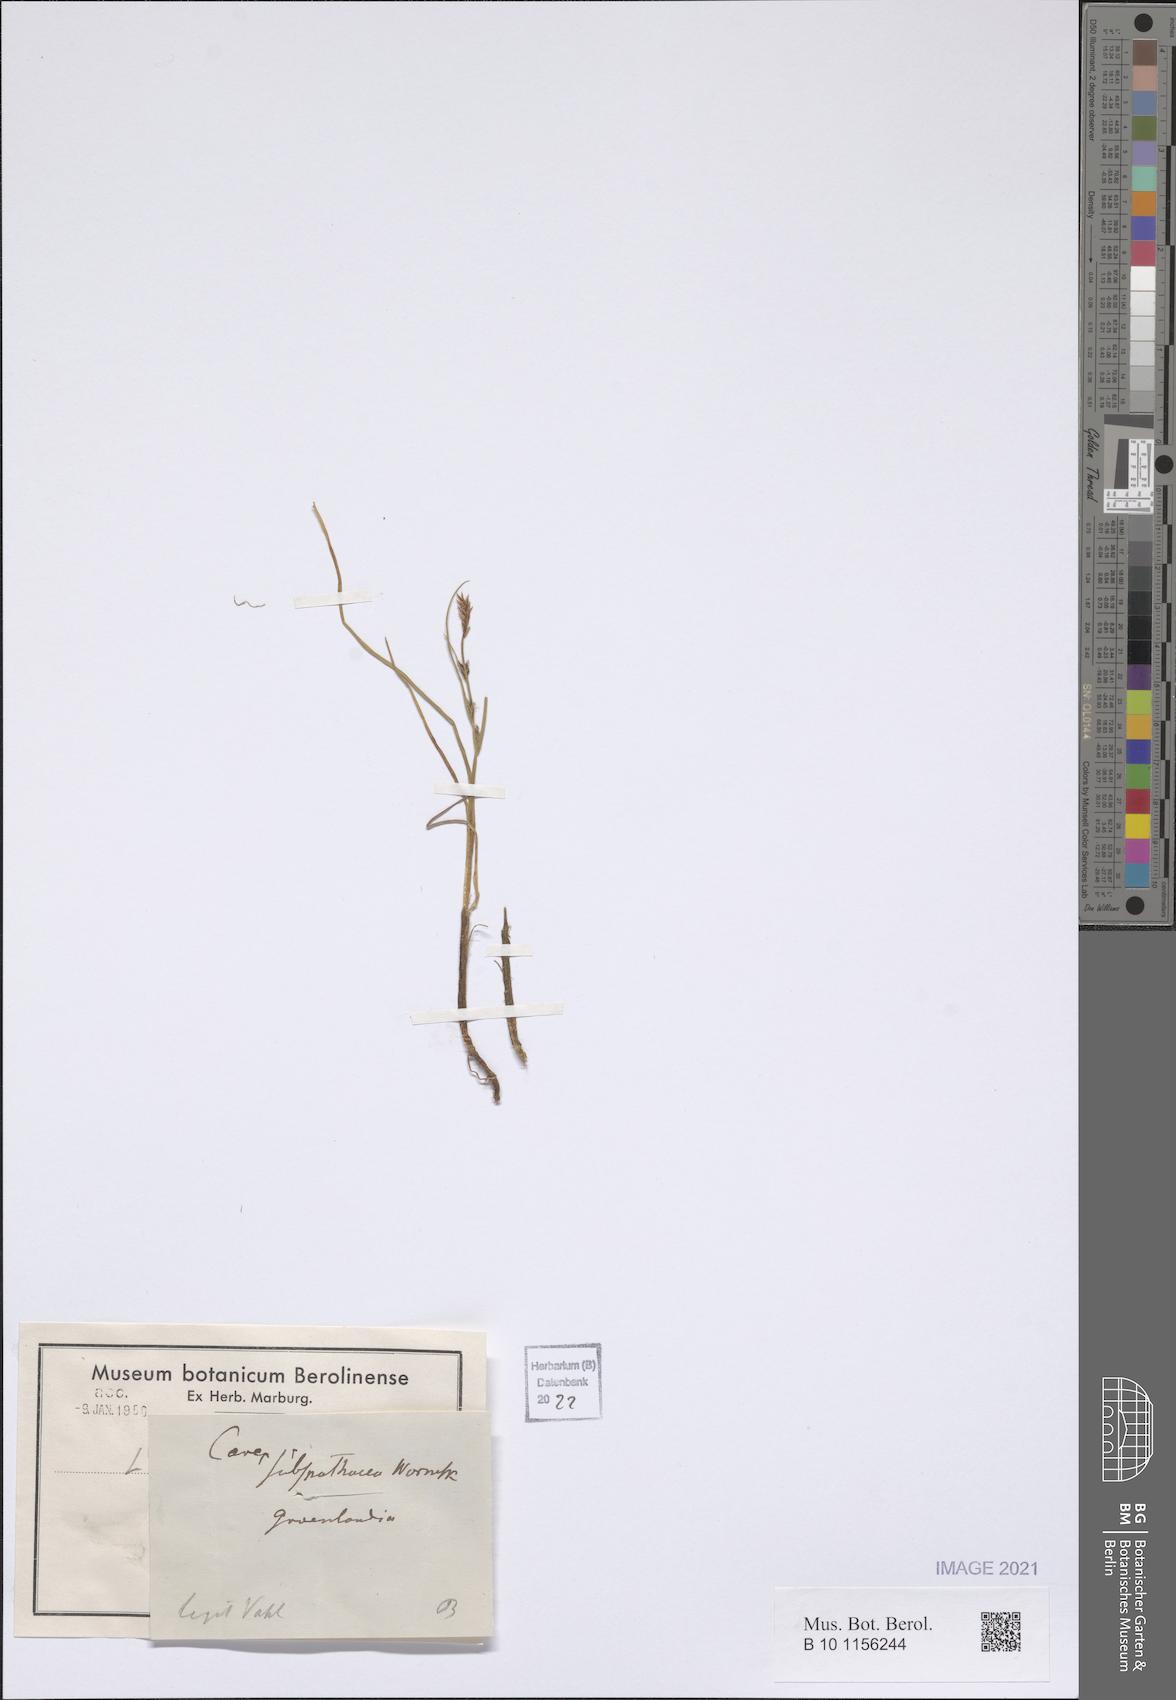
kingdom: Plantae
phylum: Tracheophyta
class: Liliopsida
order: Poales
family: Cyperaceae
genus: Carex
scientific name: Carex subspathacea
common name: Hoppner's sedge
